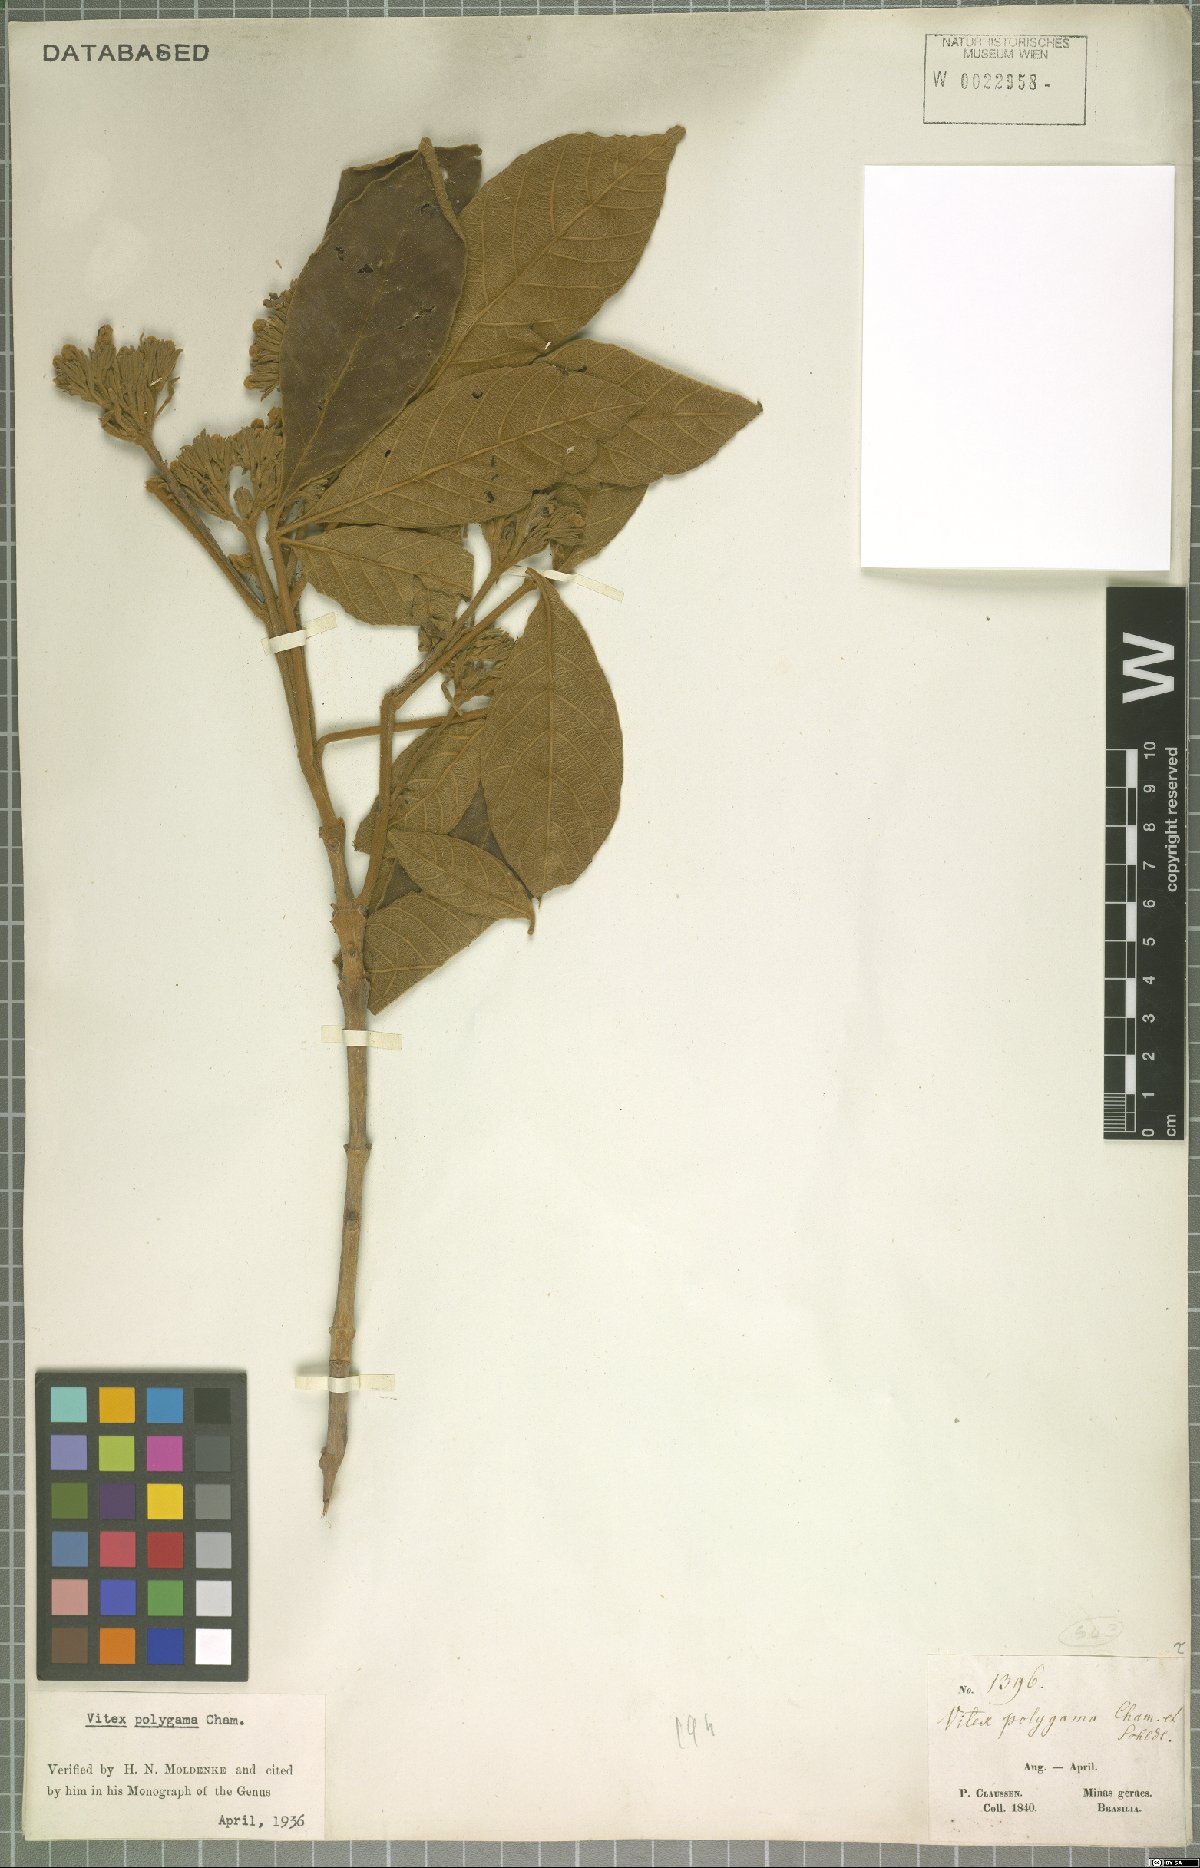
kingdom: Plantae
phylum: Tracheophyta
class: Magnoliopsida
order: Lamiales
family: Lamiaceae
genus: Vitex
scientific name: Vitex polygama
